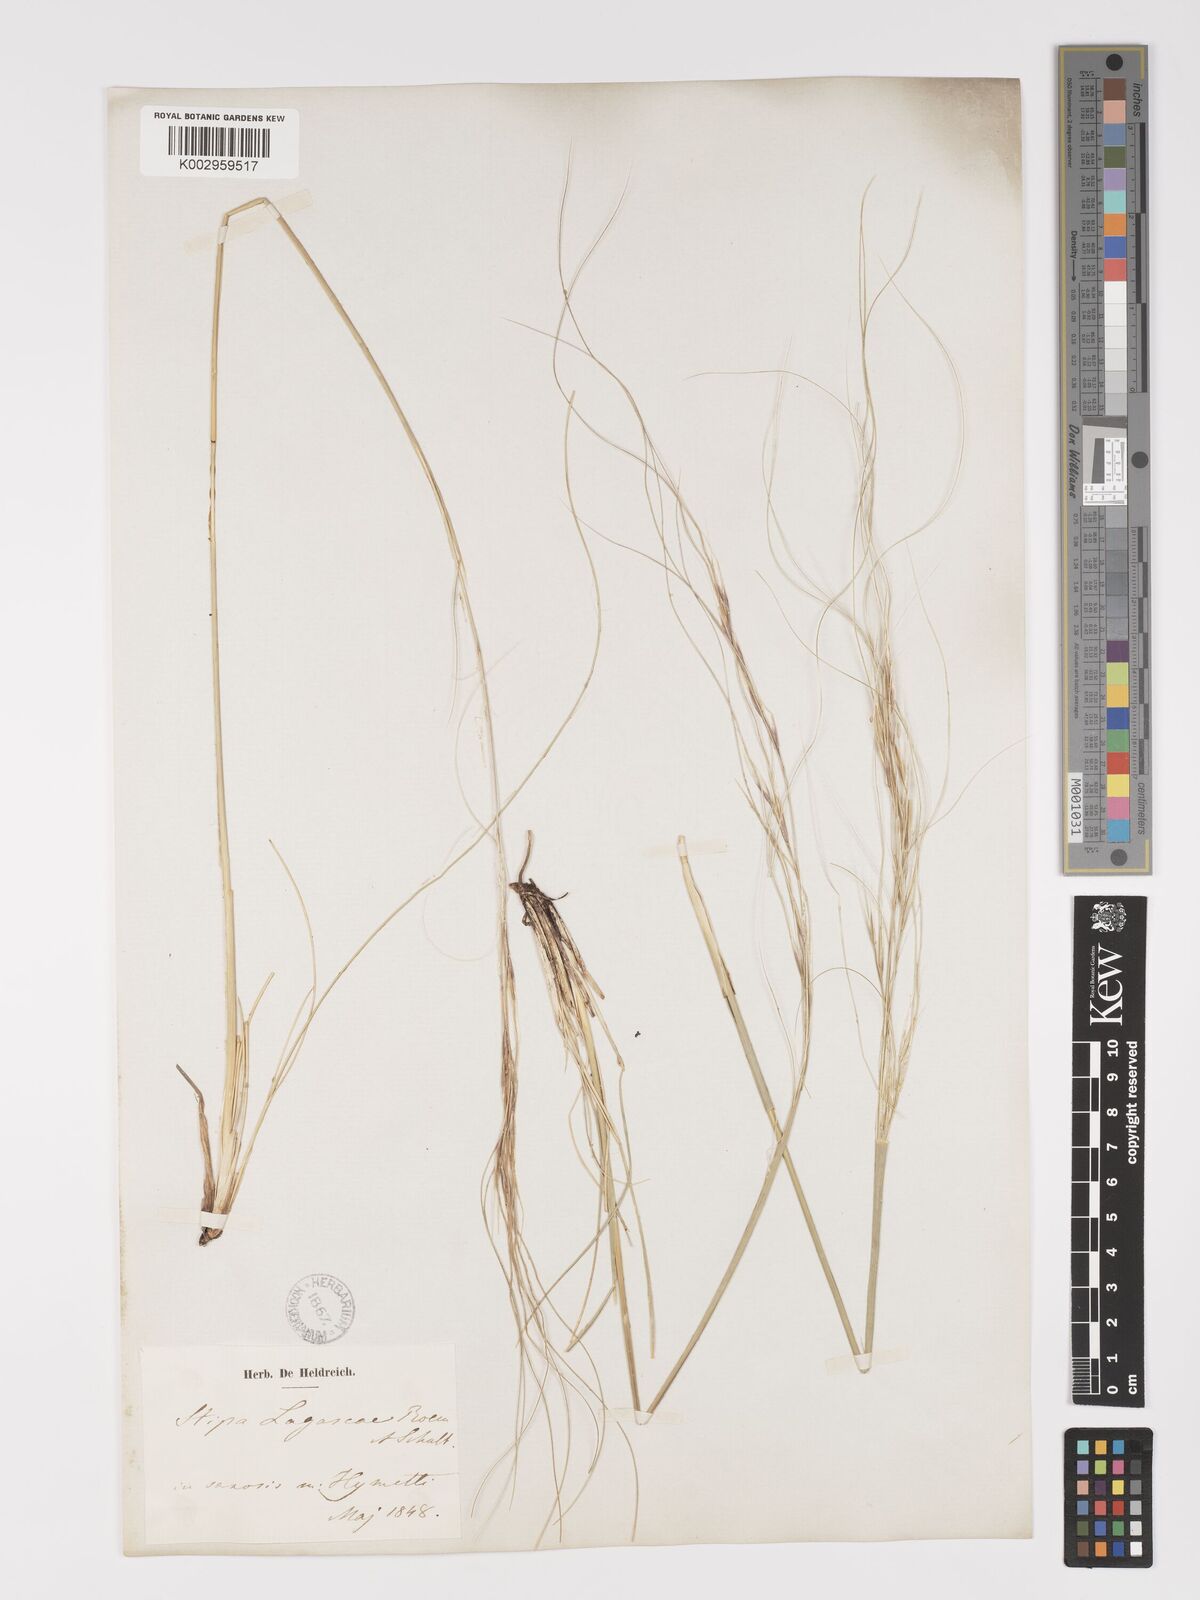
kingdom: Plantae
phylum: Tracheophyta
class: Liliopsida
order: Poales
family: Poaceae
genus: Stipa
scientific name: Stipa holosericea
